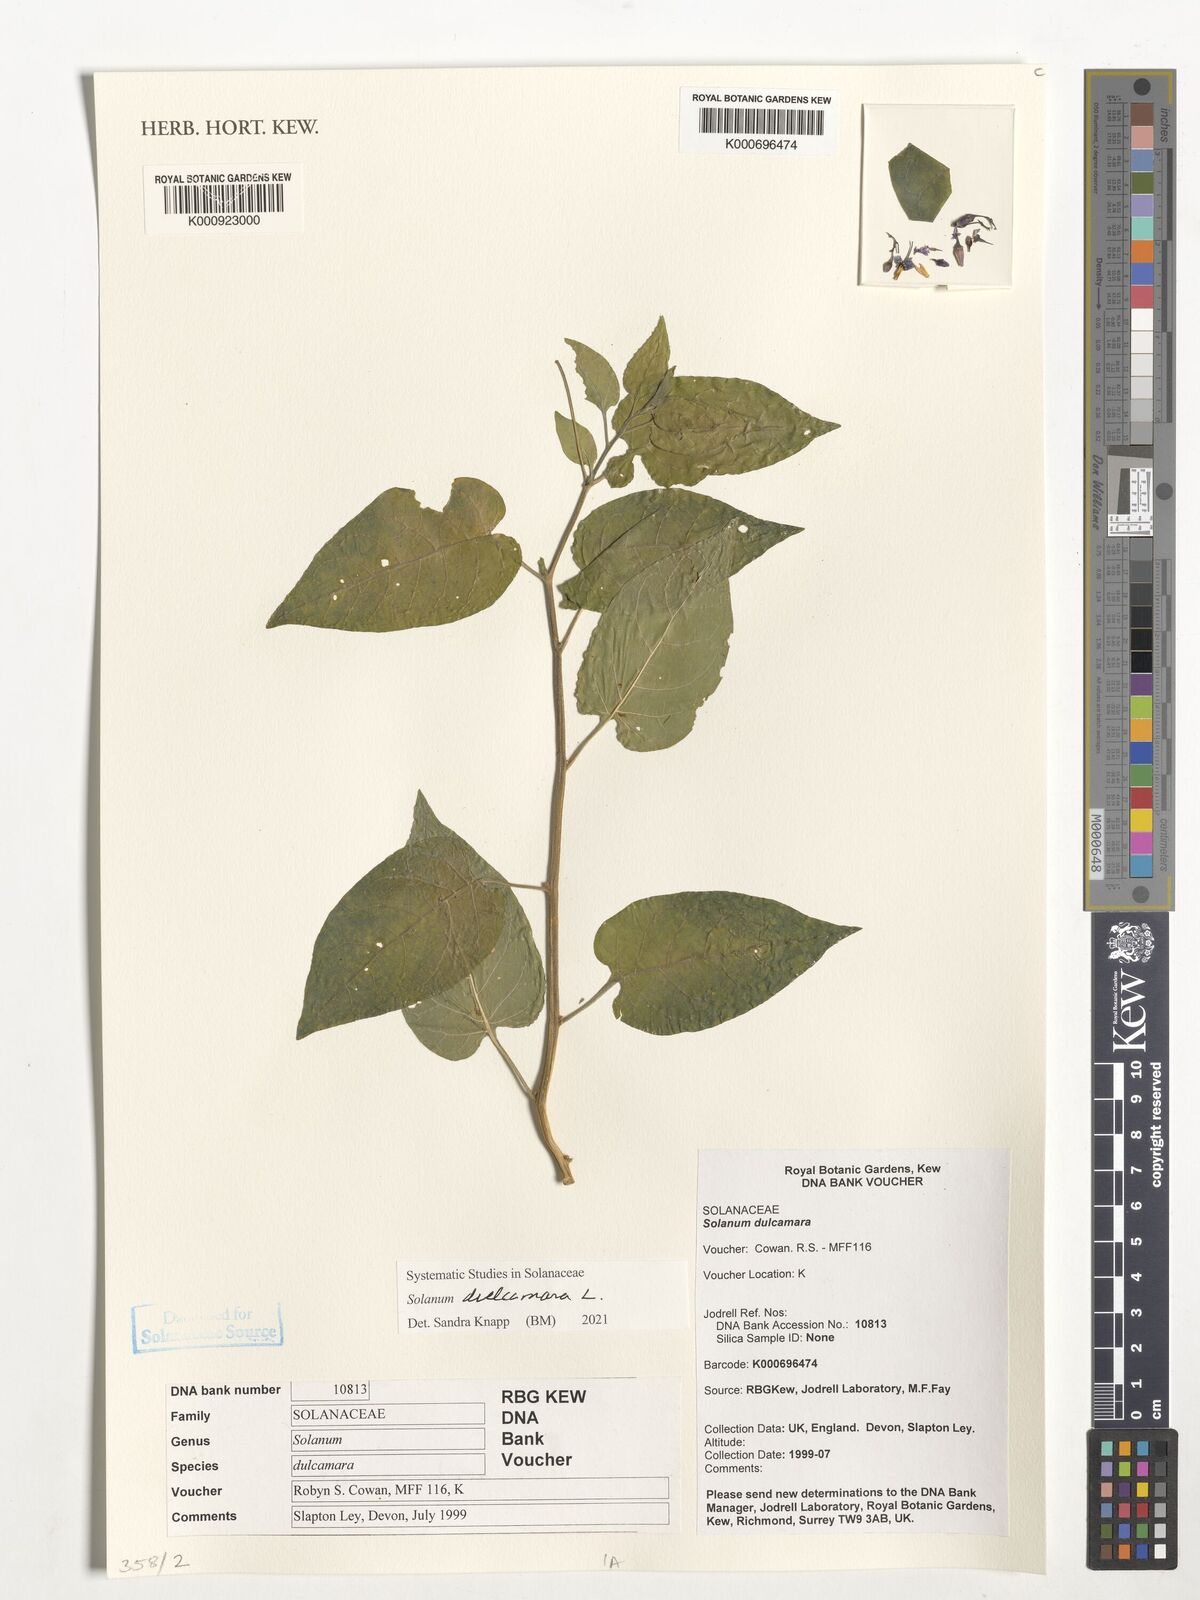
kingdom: Plantae
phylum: Tracheophyta
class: Magnoliopsida
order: Solanales
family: Solanaceae
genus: Solanum
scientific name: Solanum
